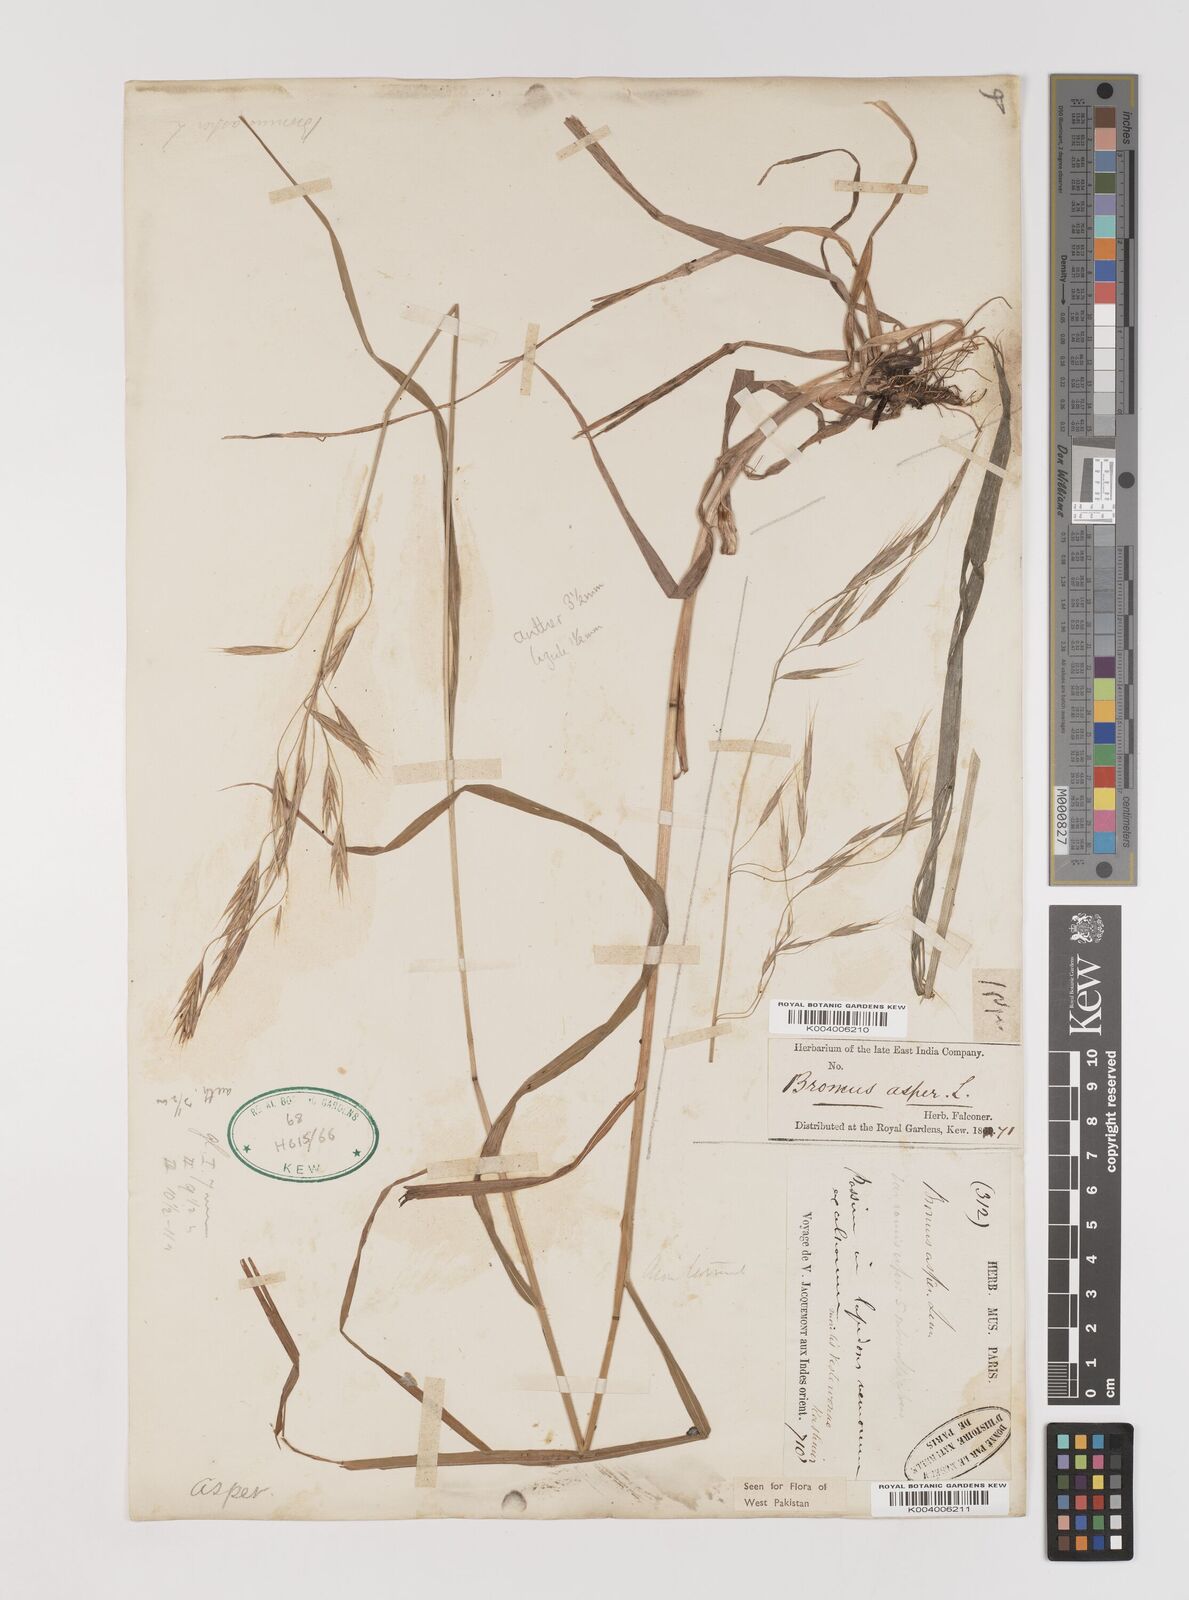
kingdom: Plantae
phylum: Tracheophyta
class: Liliopsida
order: Poales
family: Poaceae
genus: Brachypodium
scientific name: Brachypodium retusum
